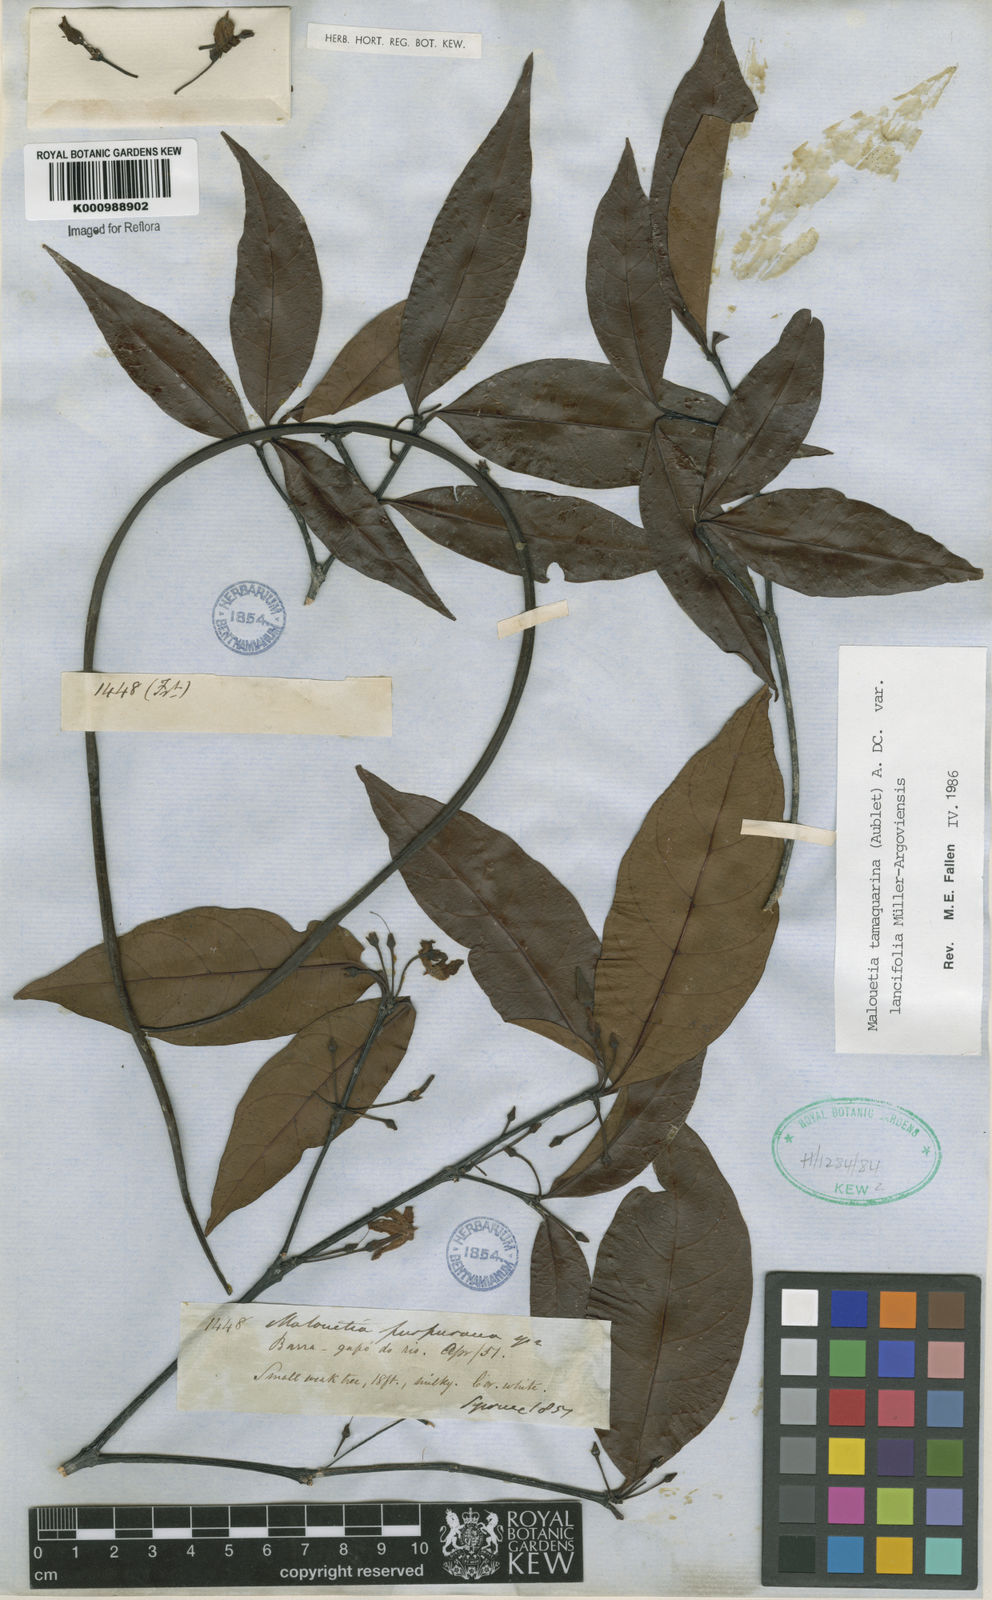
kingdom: Plantae
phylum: Tracheophyta
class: Magnoliopsida
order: Gentianales
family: Apocynaceae
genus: Malouetia
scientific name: Malouetia tamaquarina
